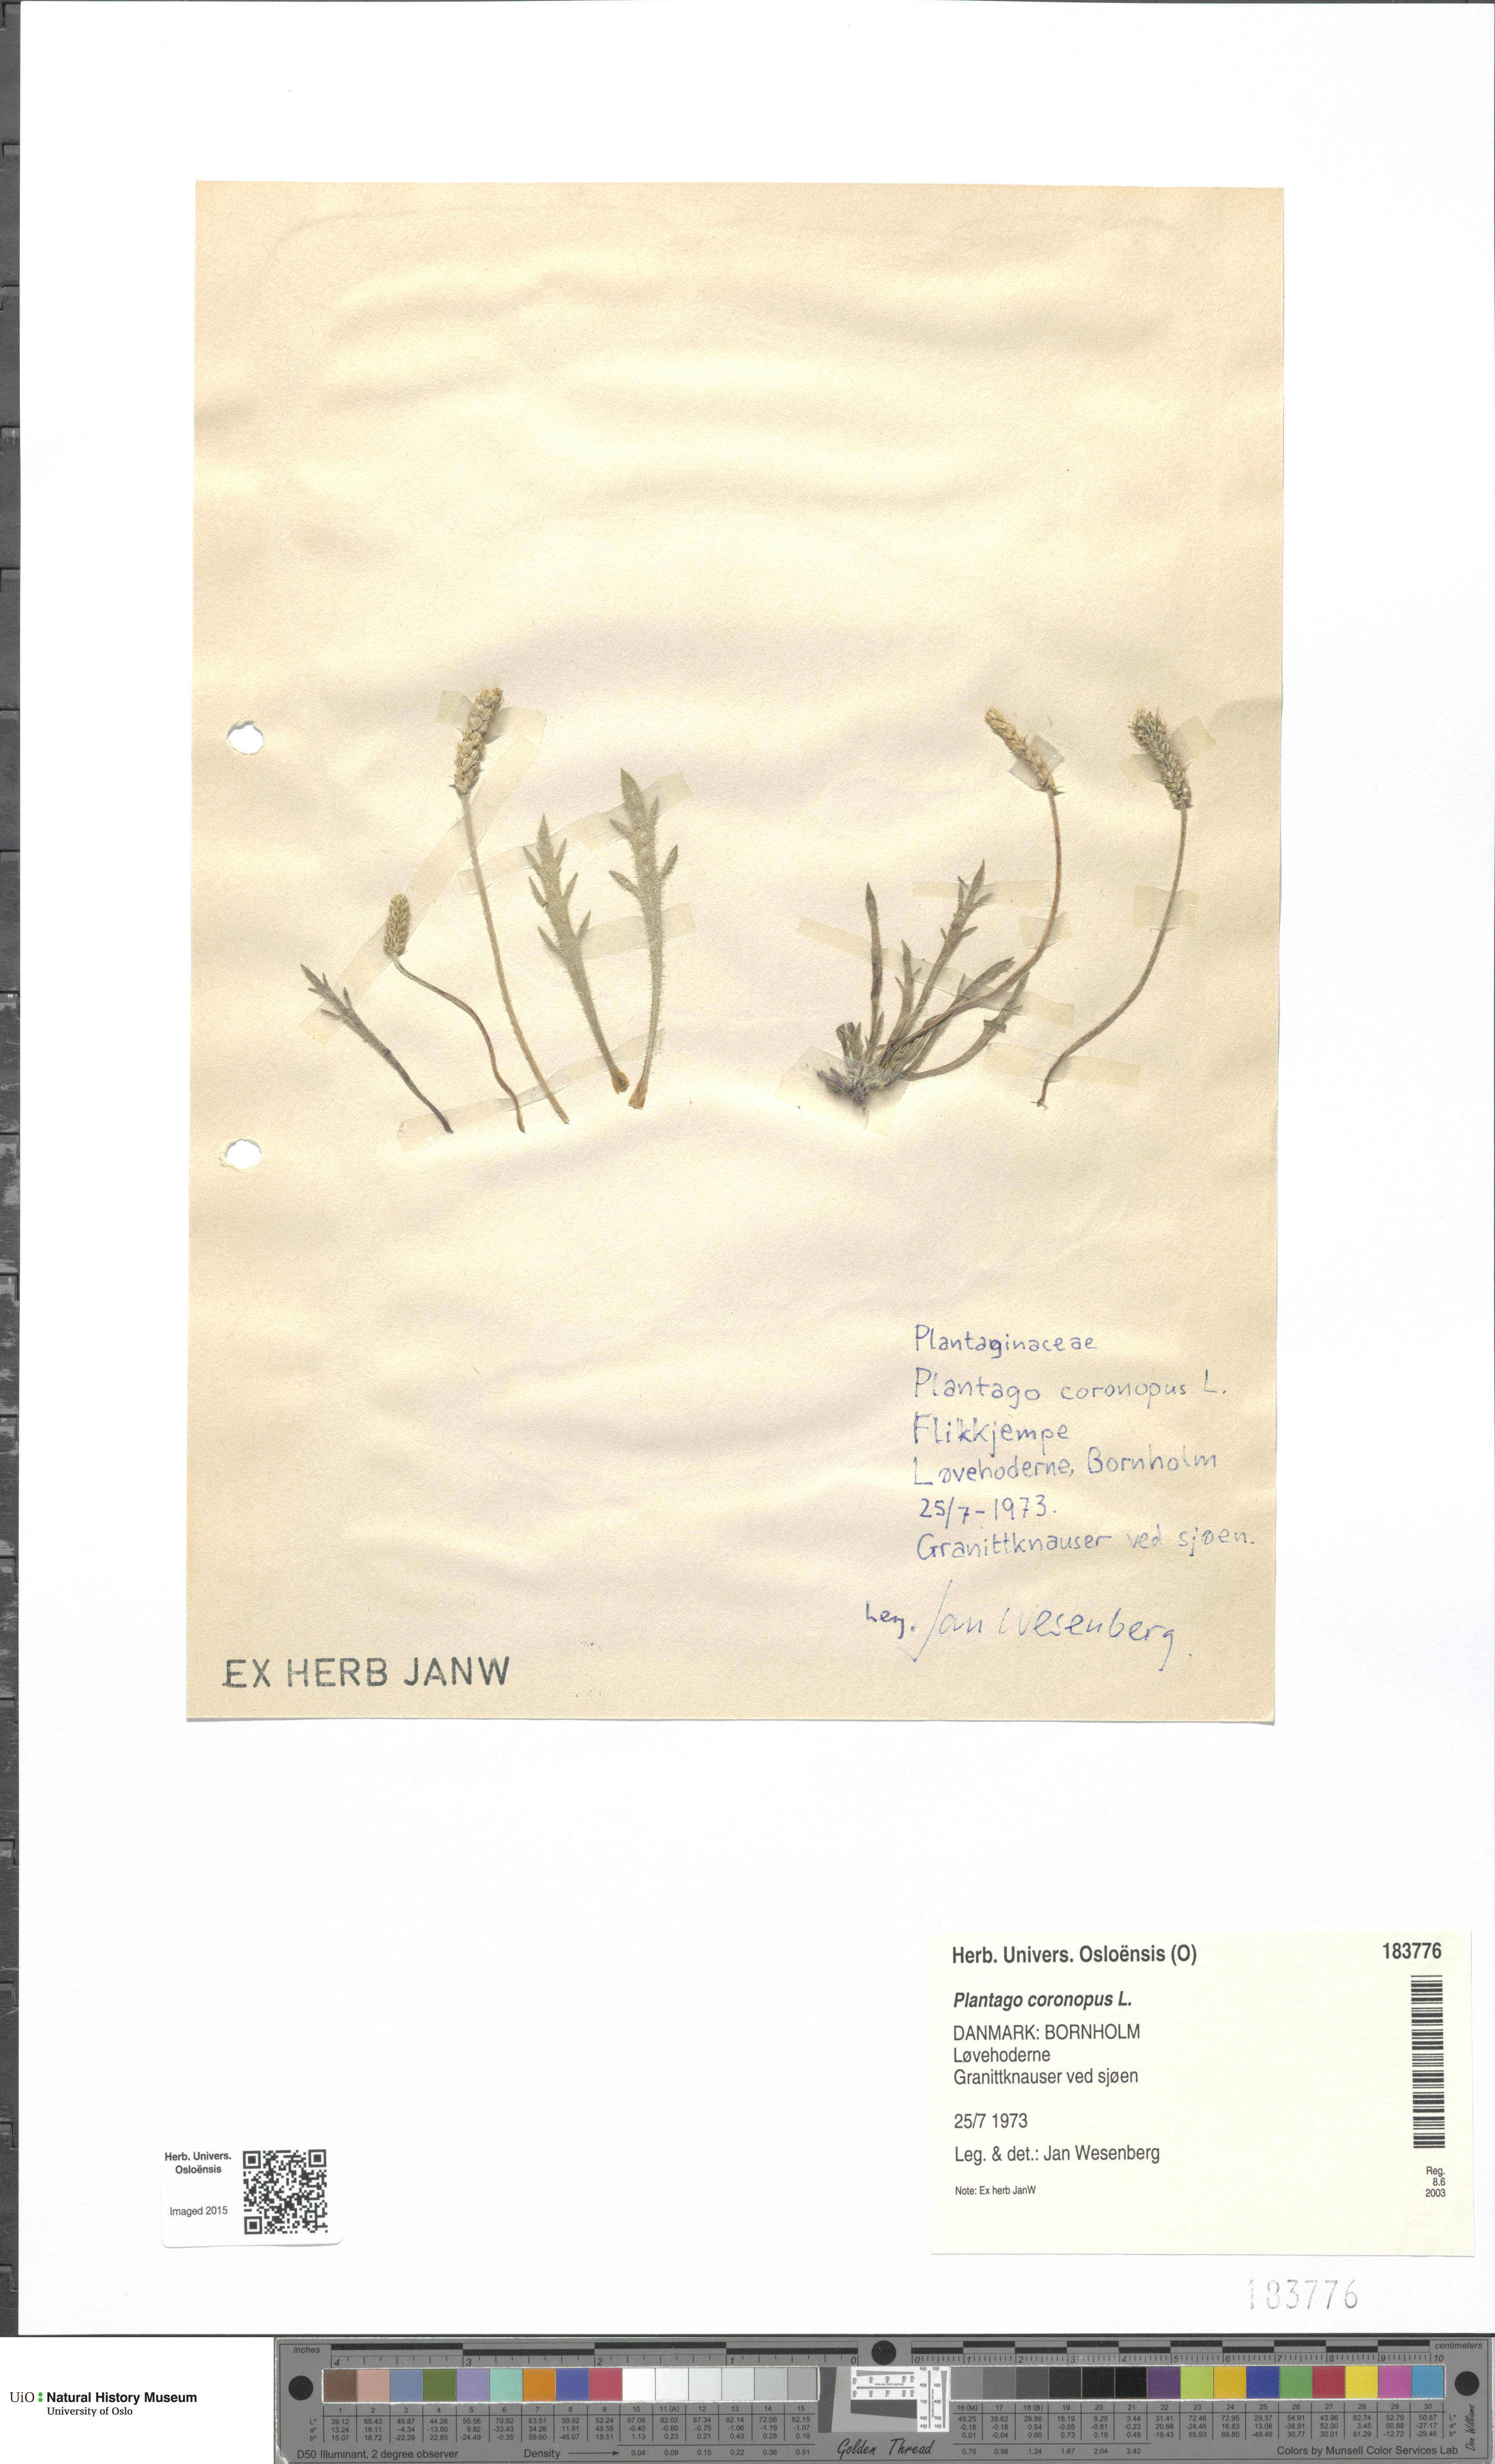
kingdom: Plantae
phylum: Tracheophyta
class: Magnoliopsida
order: Lamiales
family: Plantaginaceae
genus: Plantago
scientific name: Plantago coronopus
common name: Buck's-horn plantain
